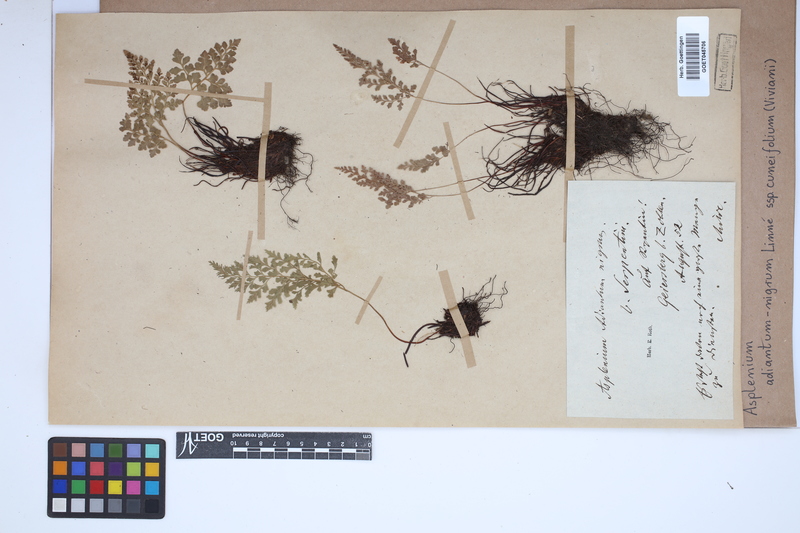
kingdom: Plantae
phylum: Tracheophyta
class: Polypodiopsida
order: Polypodiales
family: Aspleniaceae
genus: Asplenium
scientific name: Asplenium cuneifolium
